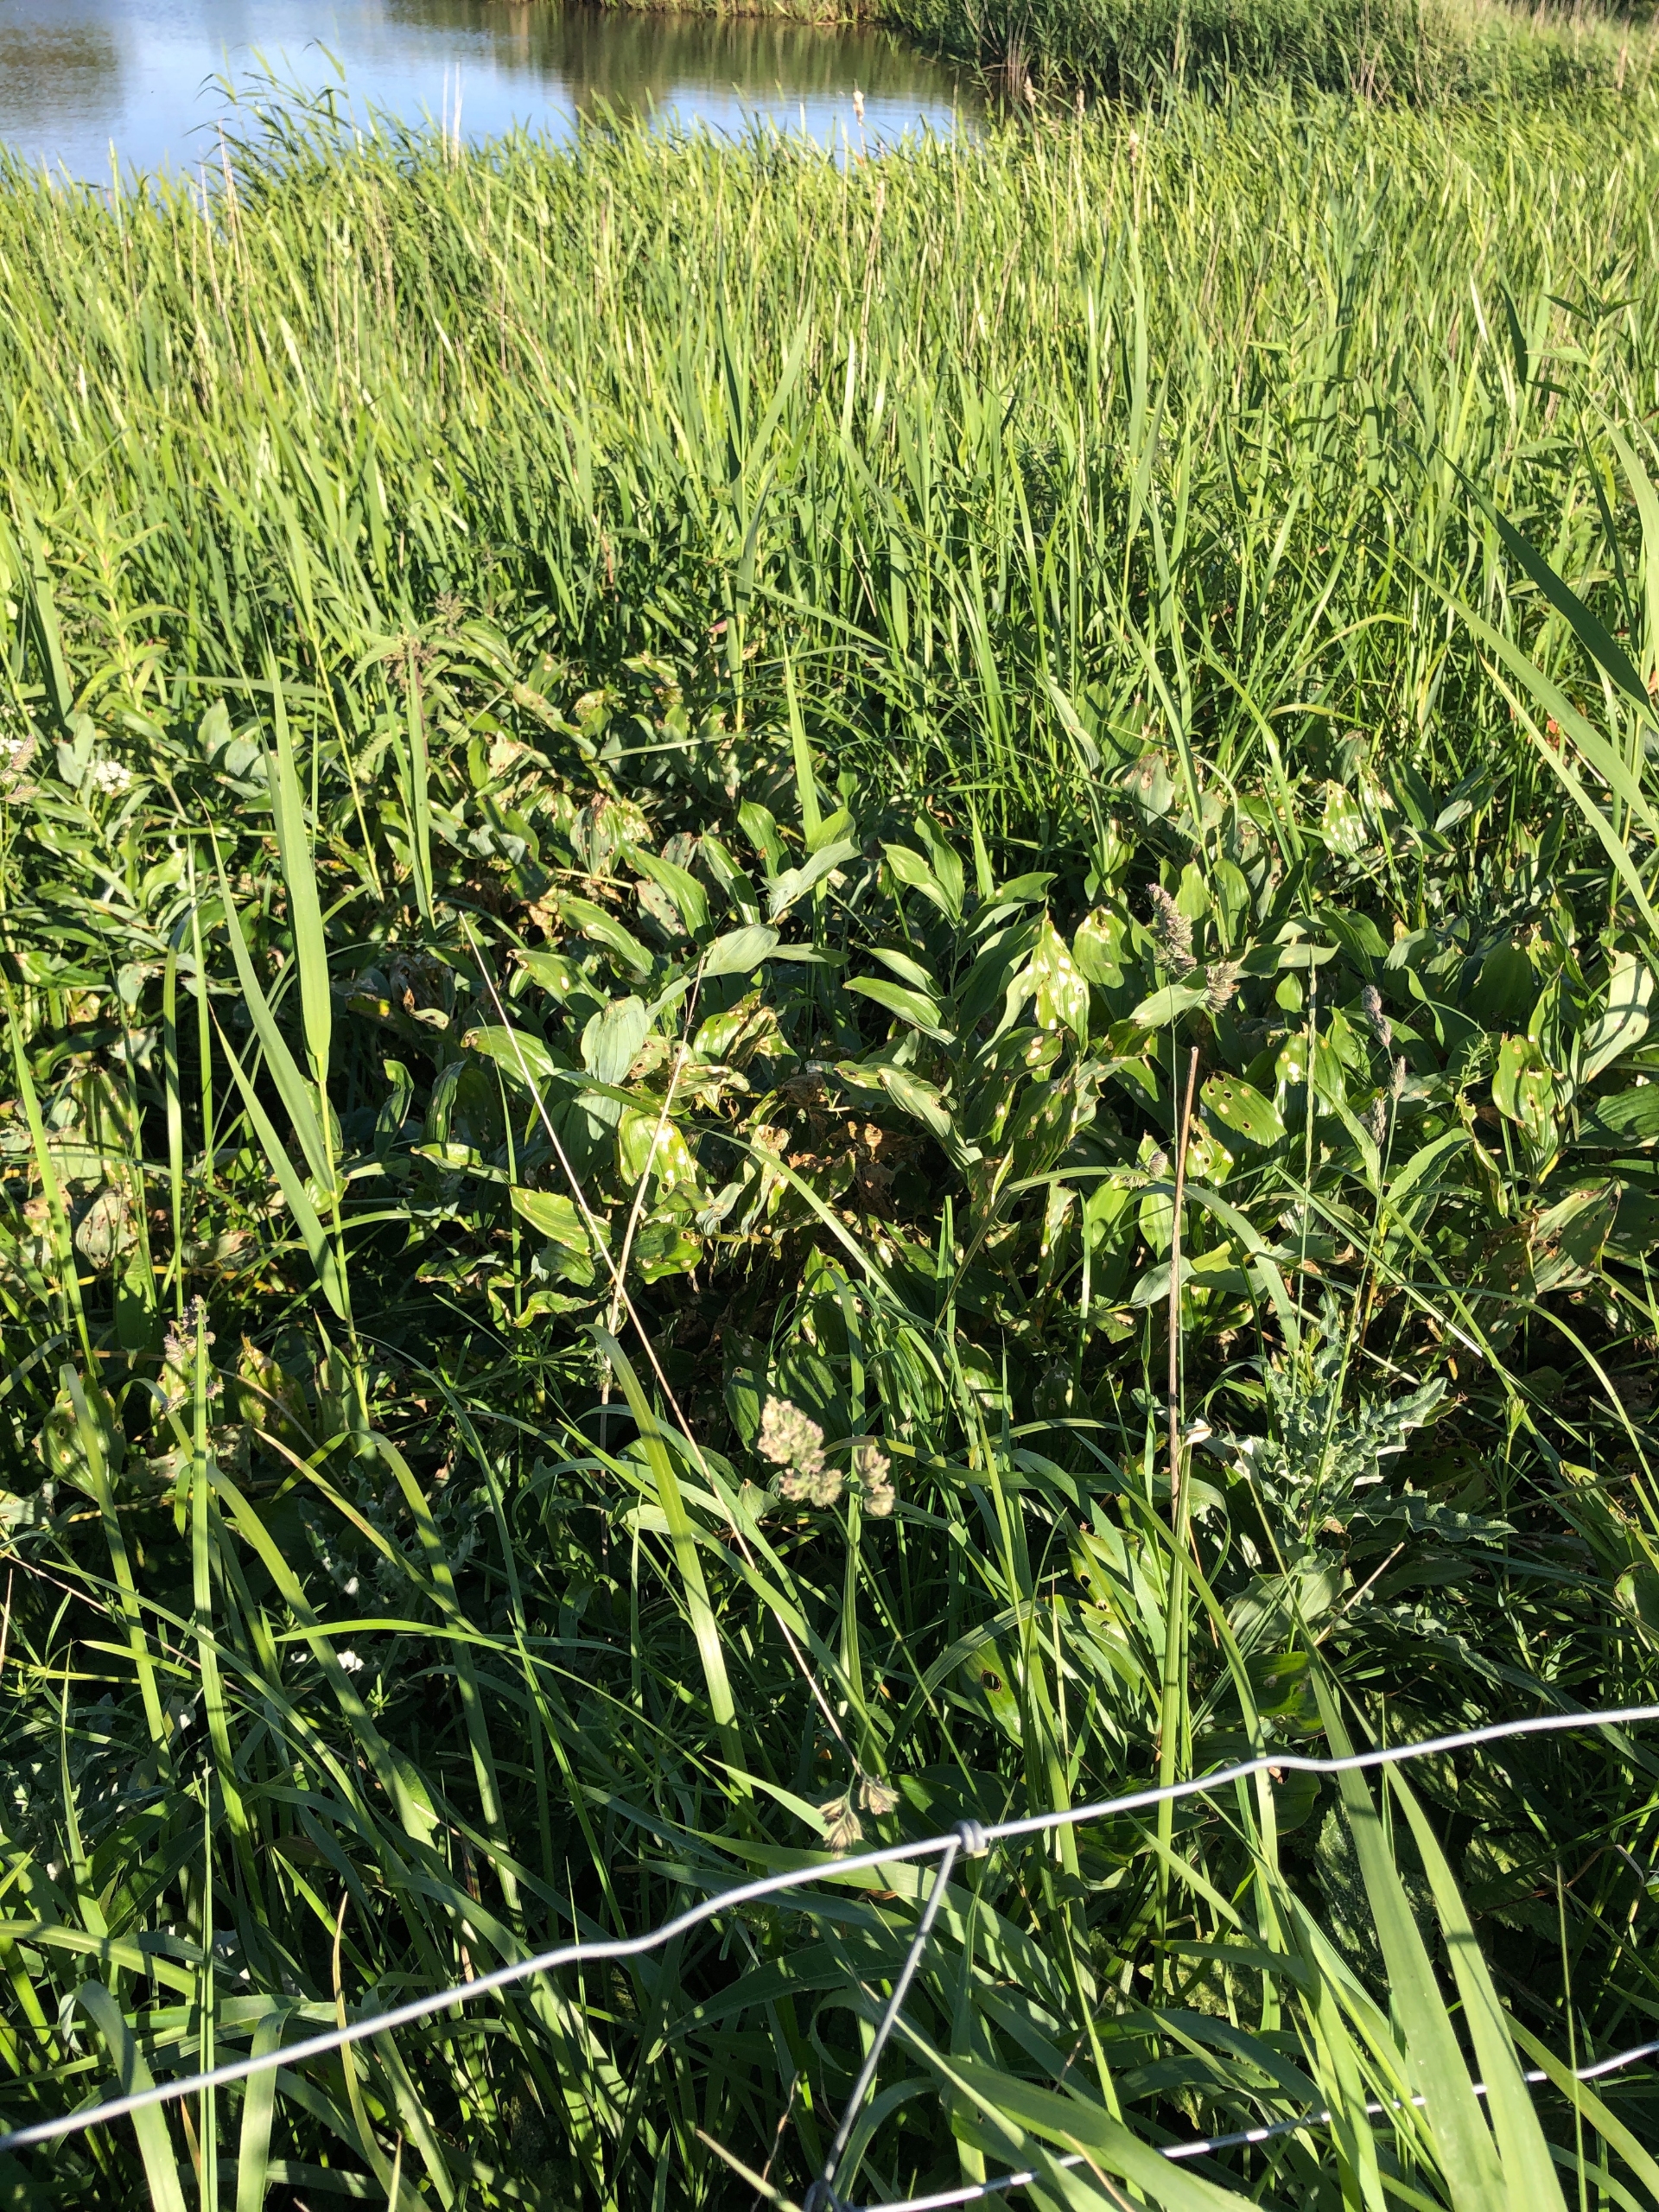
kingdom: Plantae
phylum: Tracheophyta
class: Liliopsida
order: Asparagales
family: Asparagaceae
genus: Polygonatum
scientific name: Polygonatum
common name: Hybrid-konval
